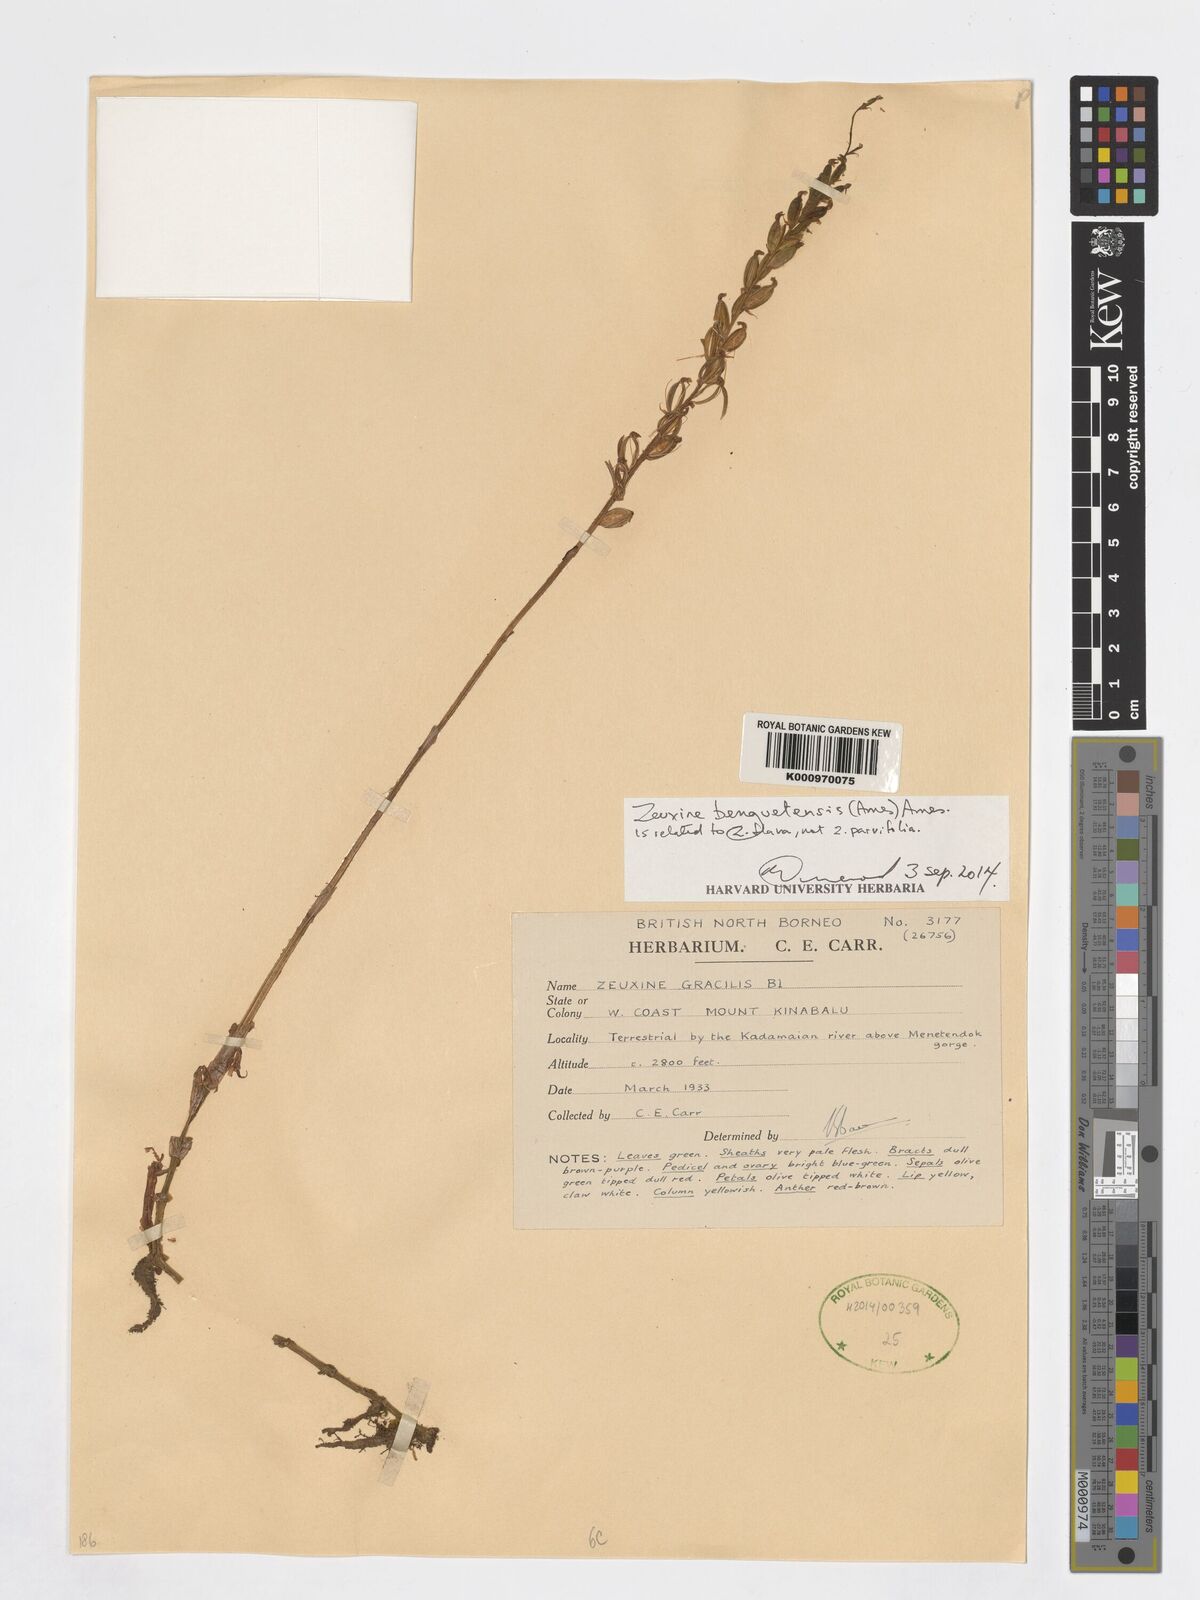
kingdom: Plantae
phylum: Tracheophyta
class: Liliopsida
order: Asparagales
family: Orchidaceae
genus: Zeuxine
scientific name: Zeuxine parvifolia
